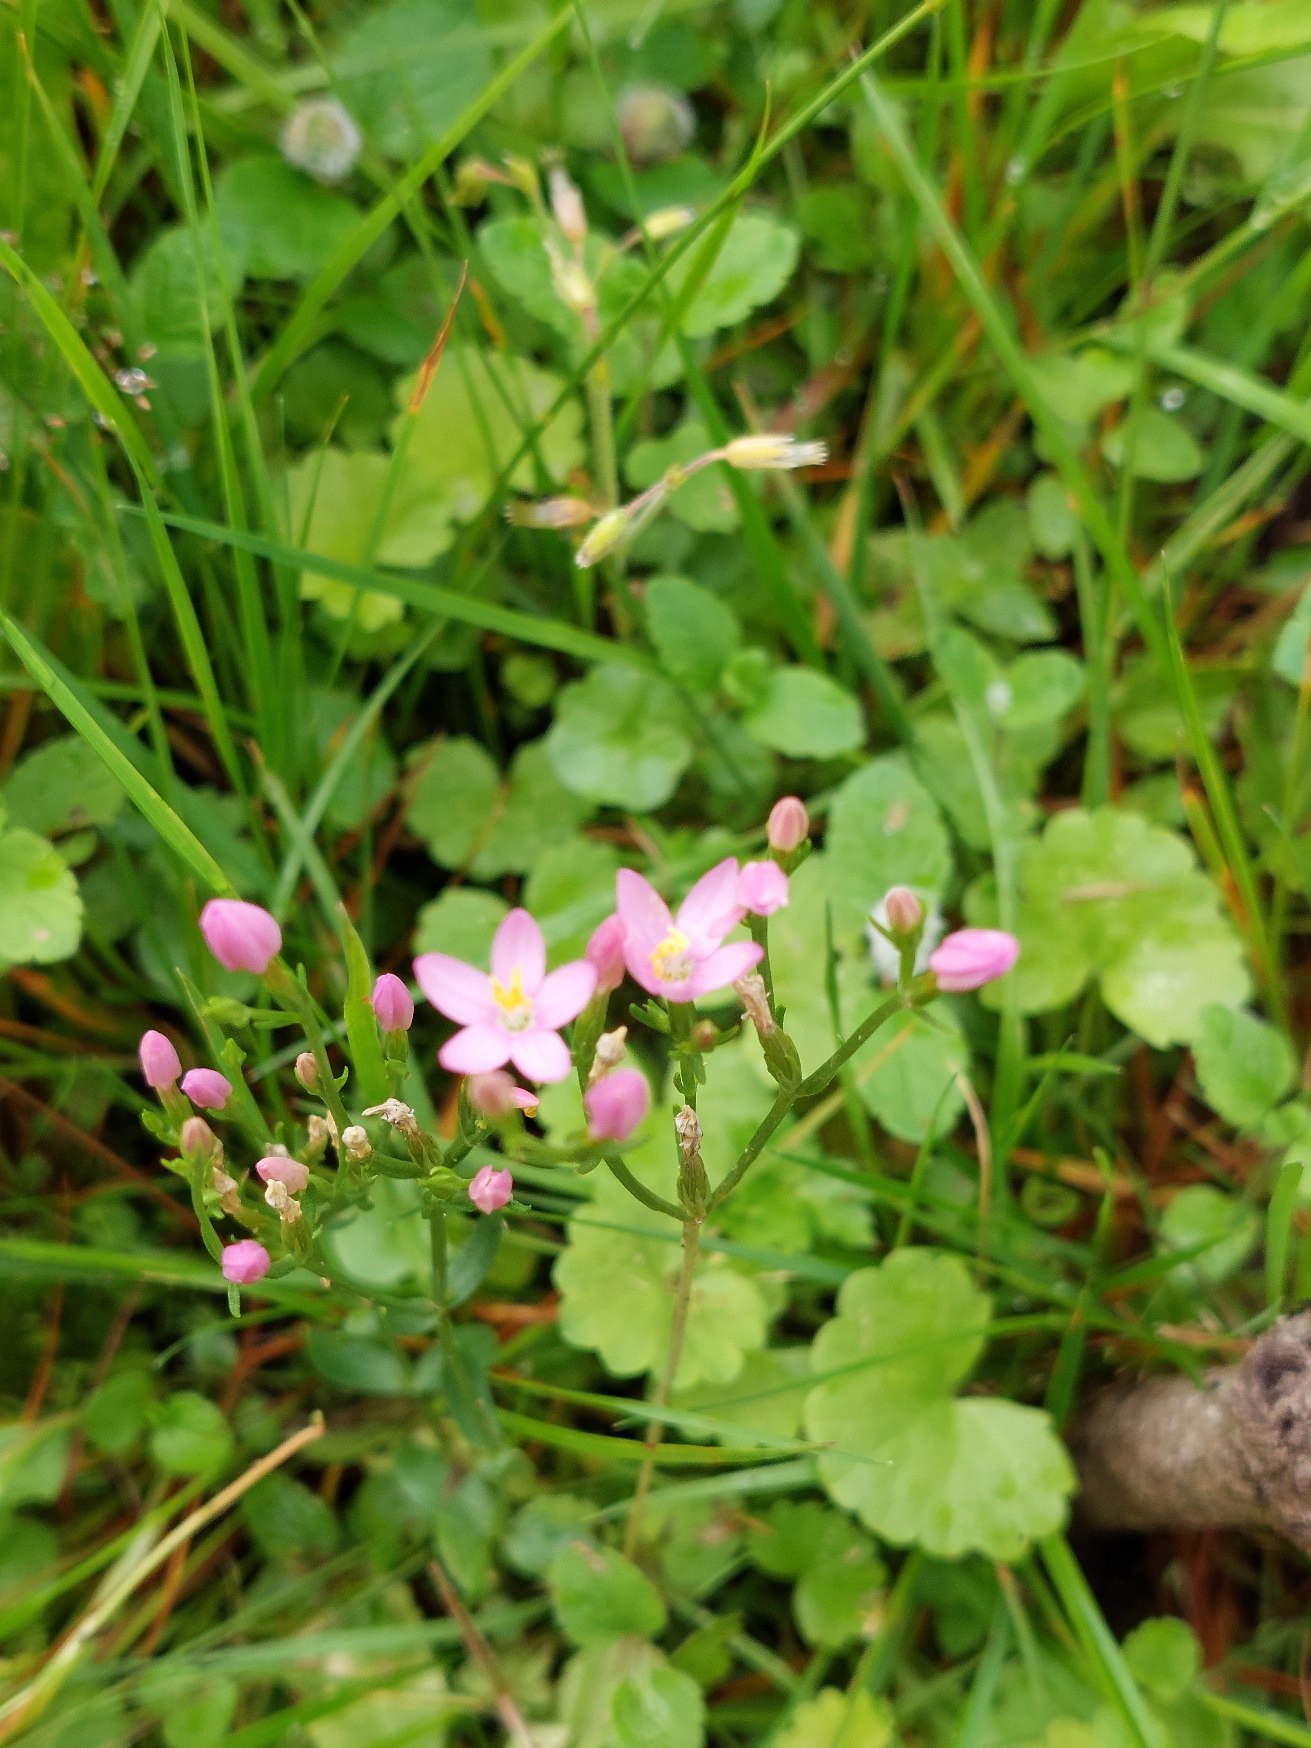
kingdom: Plantae
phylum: Tracheophyta
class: Magnoliopsida
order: Gentianales
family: Gentianaceae
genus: Centaurium
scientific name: Centaurium erythraea
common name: Mark-tusindgylden
